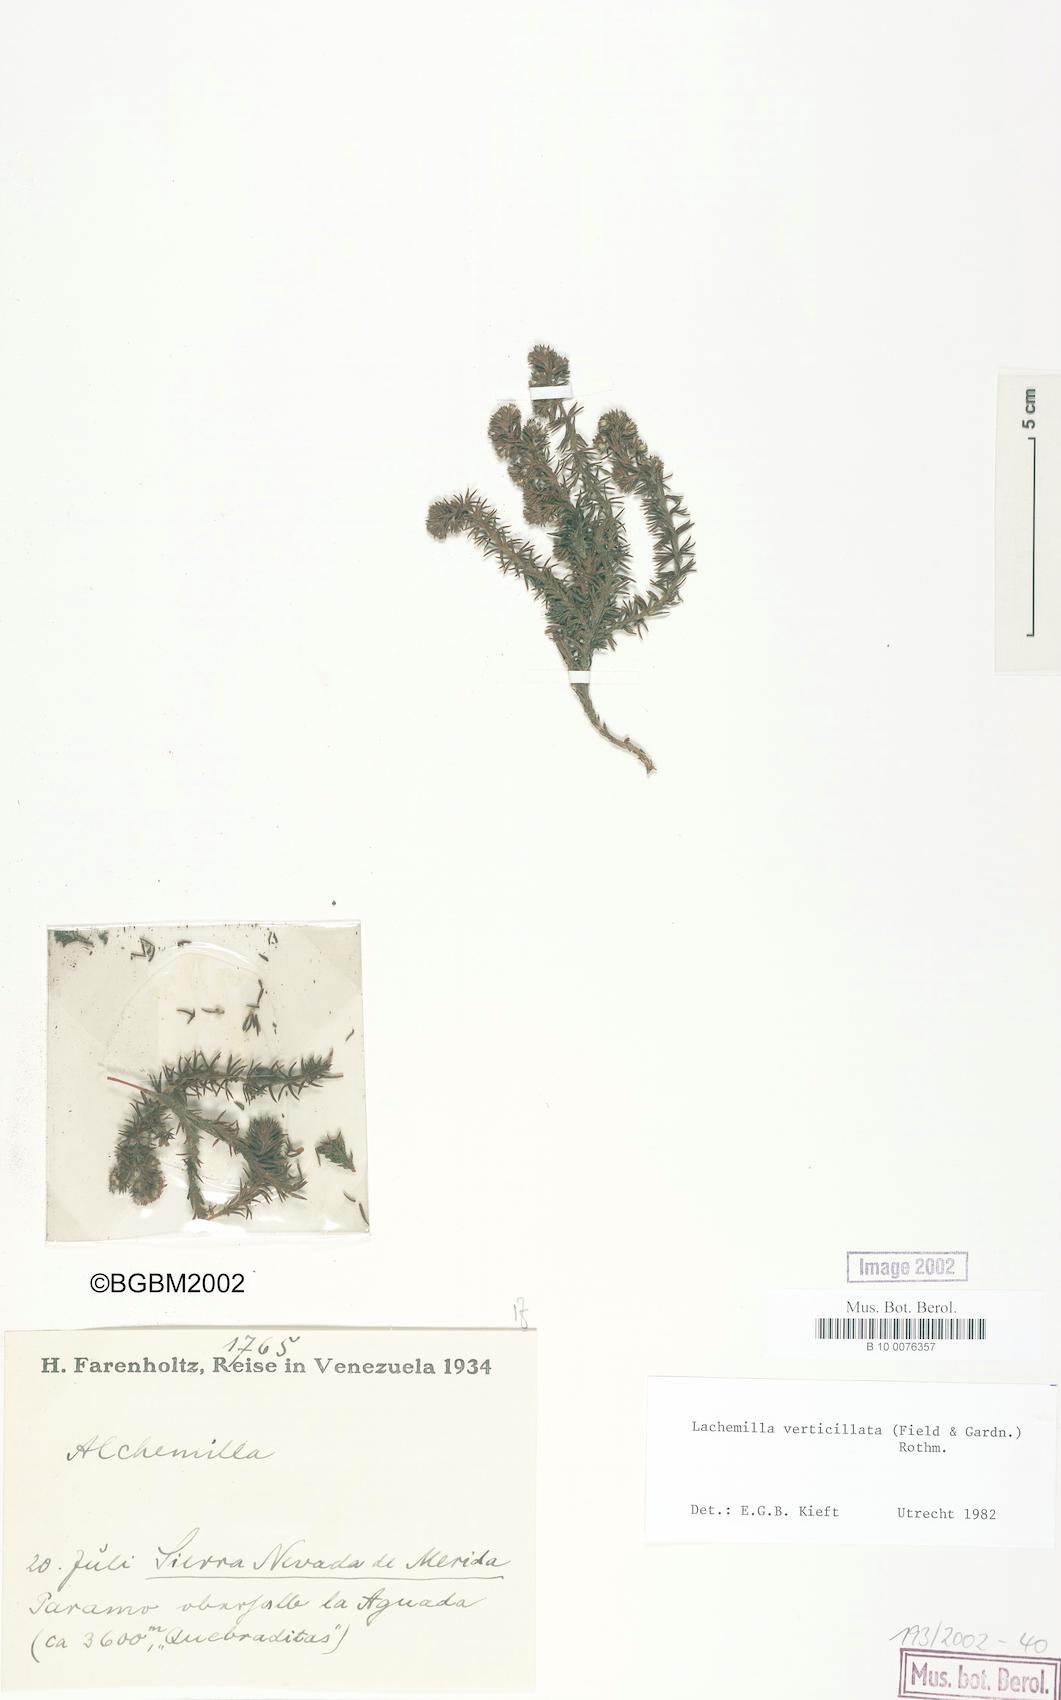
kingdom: Plantae
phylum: Tracheophyta
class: Magnoliopsida
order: Rosales
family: Rosaceae
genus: Lachemilla
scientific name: Lachemilla verticillata
